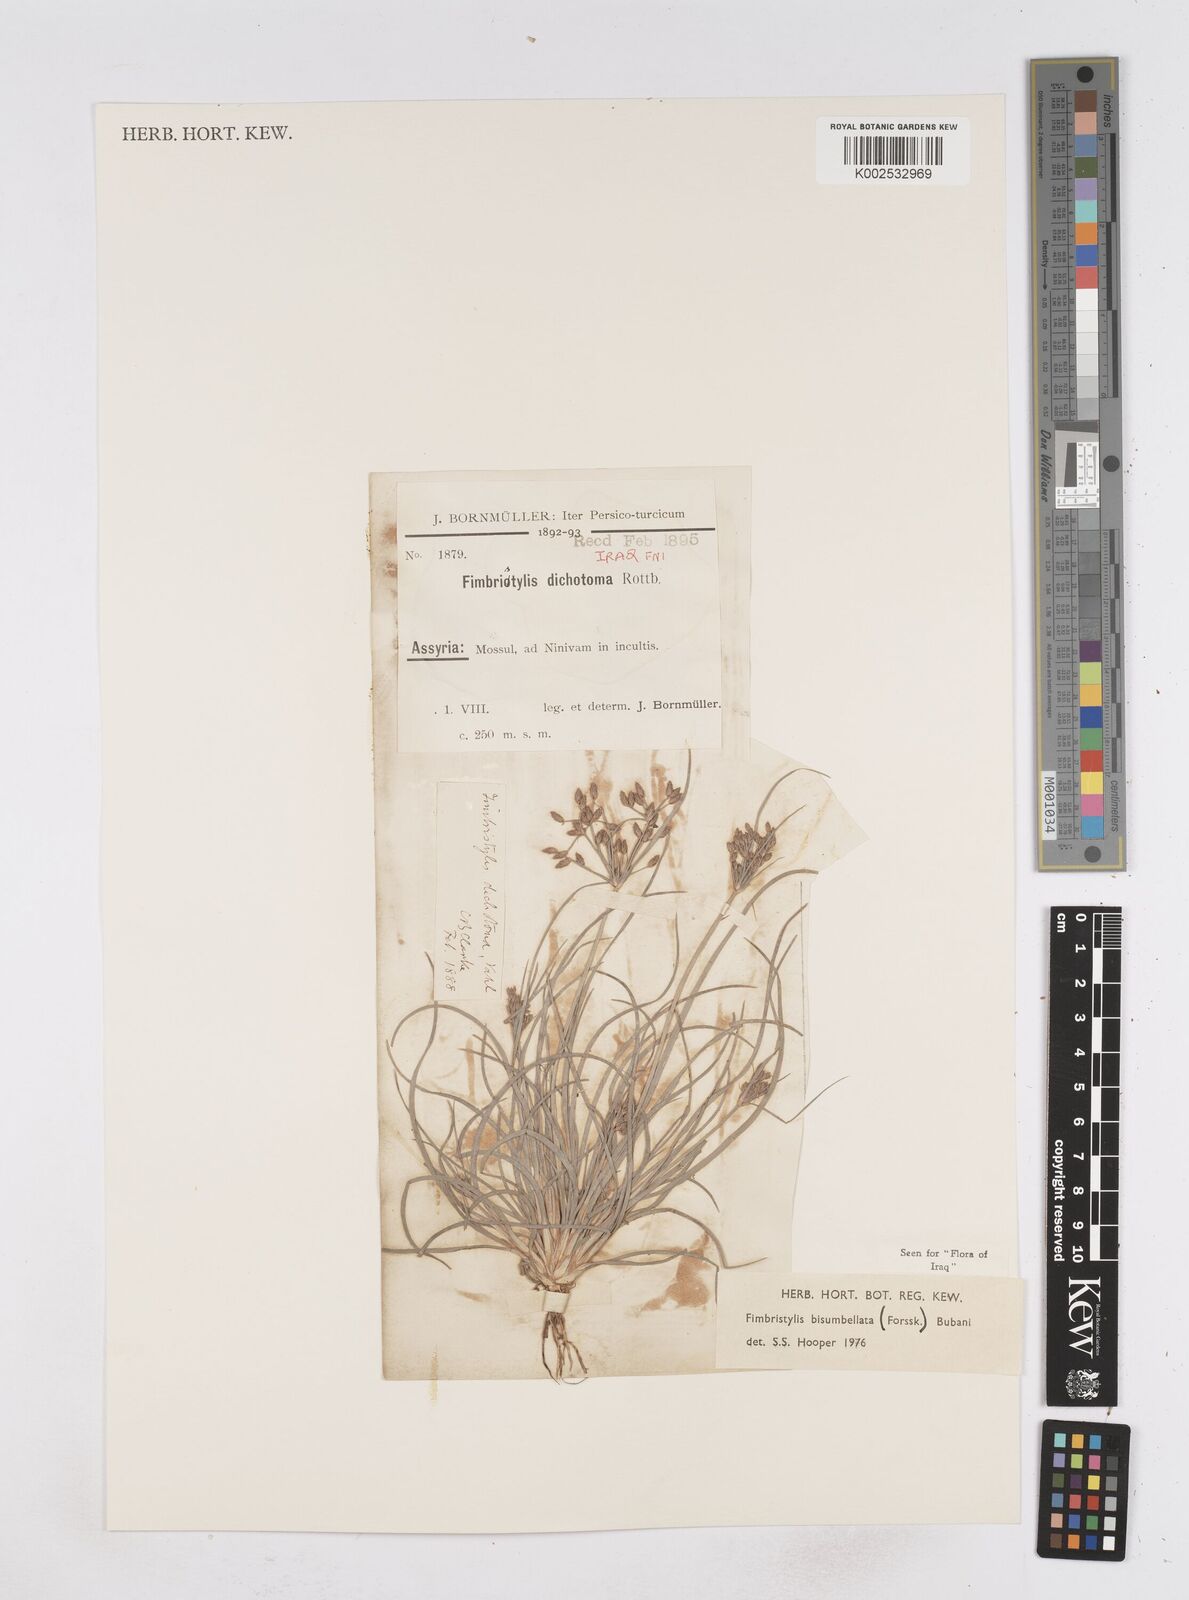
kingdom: Plantae
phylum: Tracheophyta
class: Liliopsida
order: Poales
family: Cyperaceae
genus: Fimbristylis
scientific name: Fimbristylis bisumbellata
